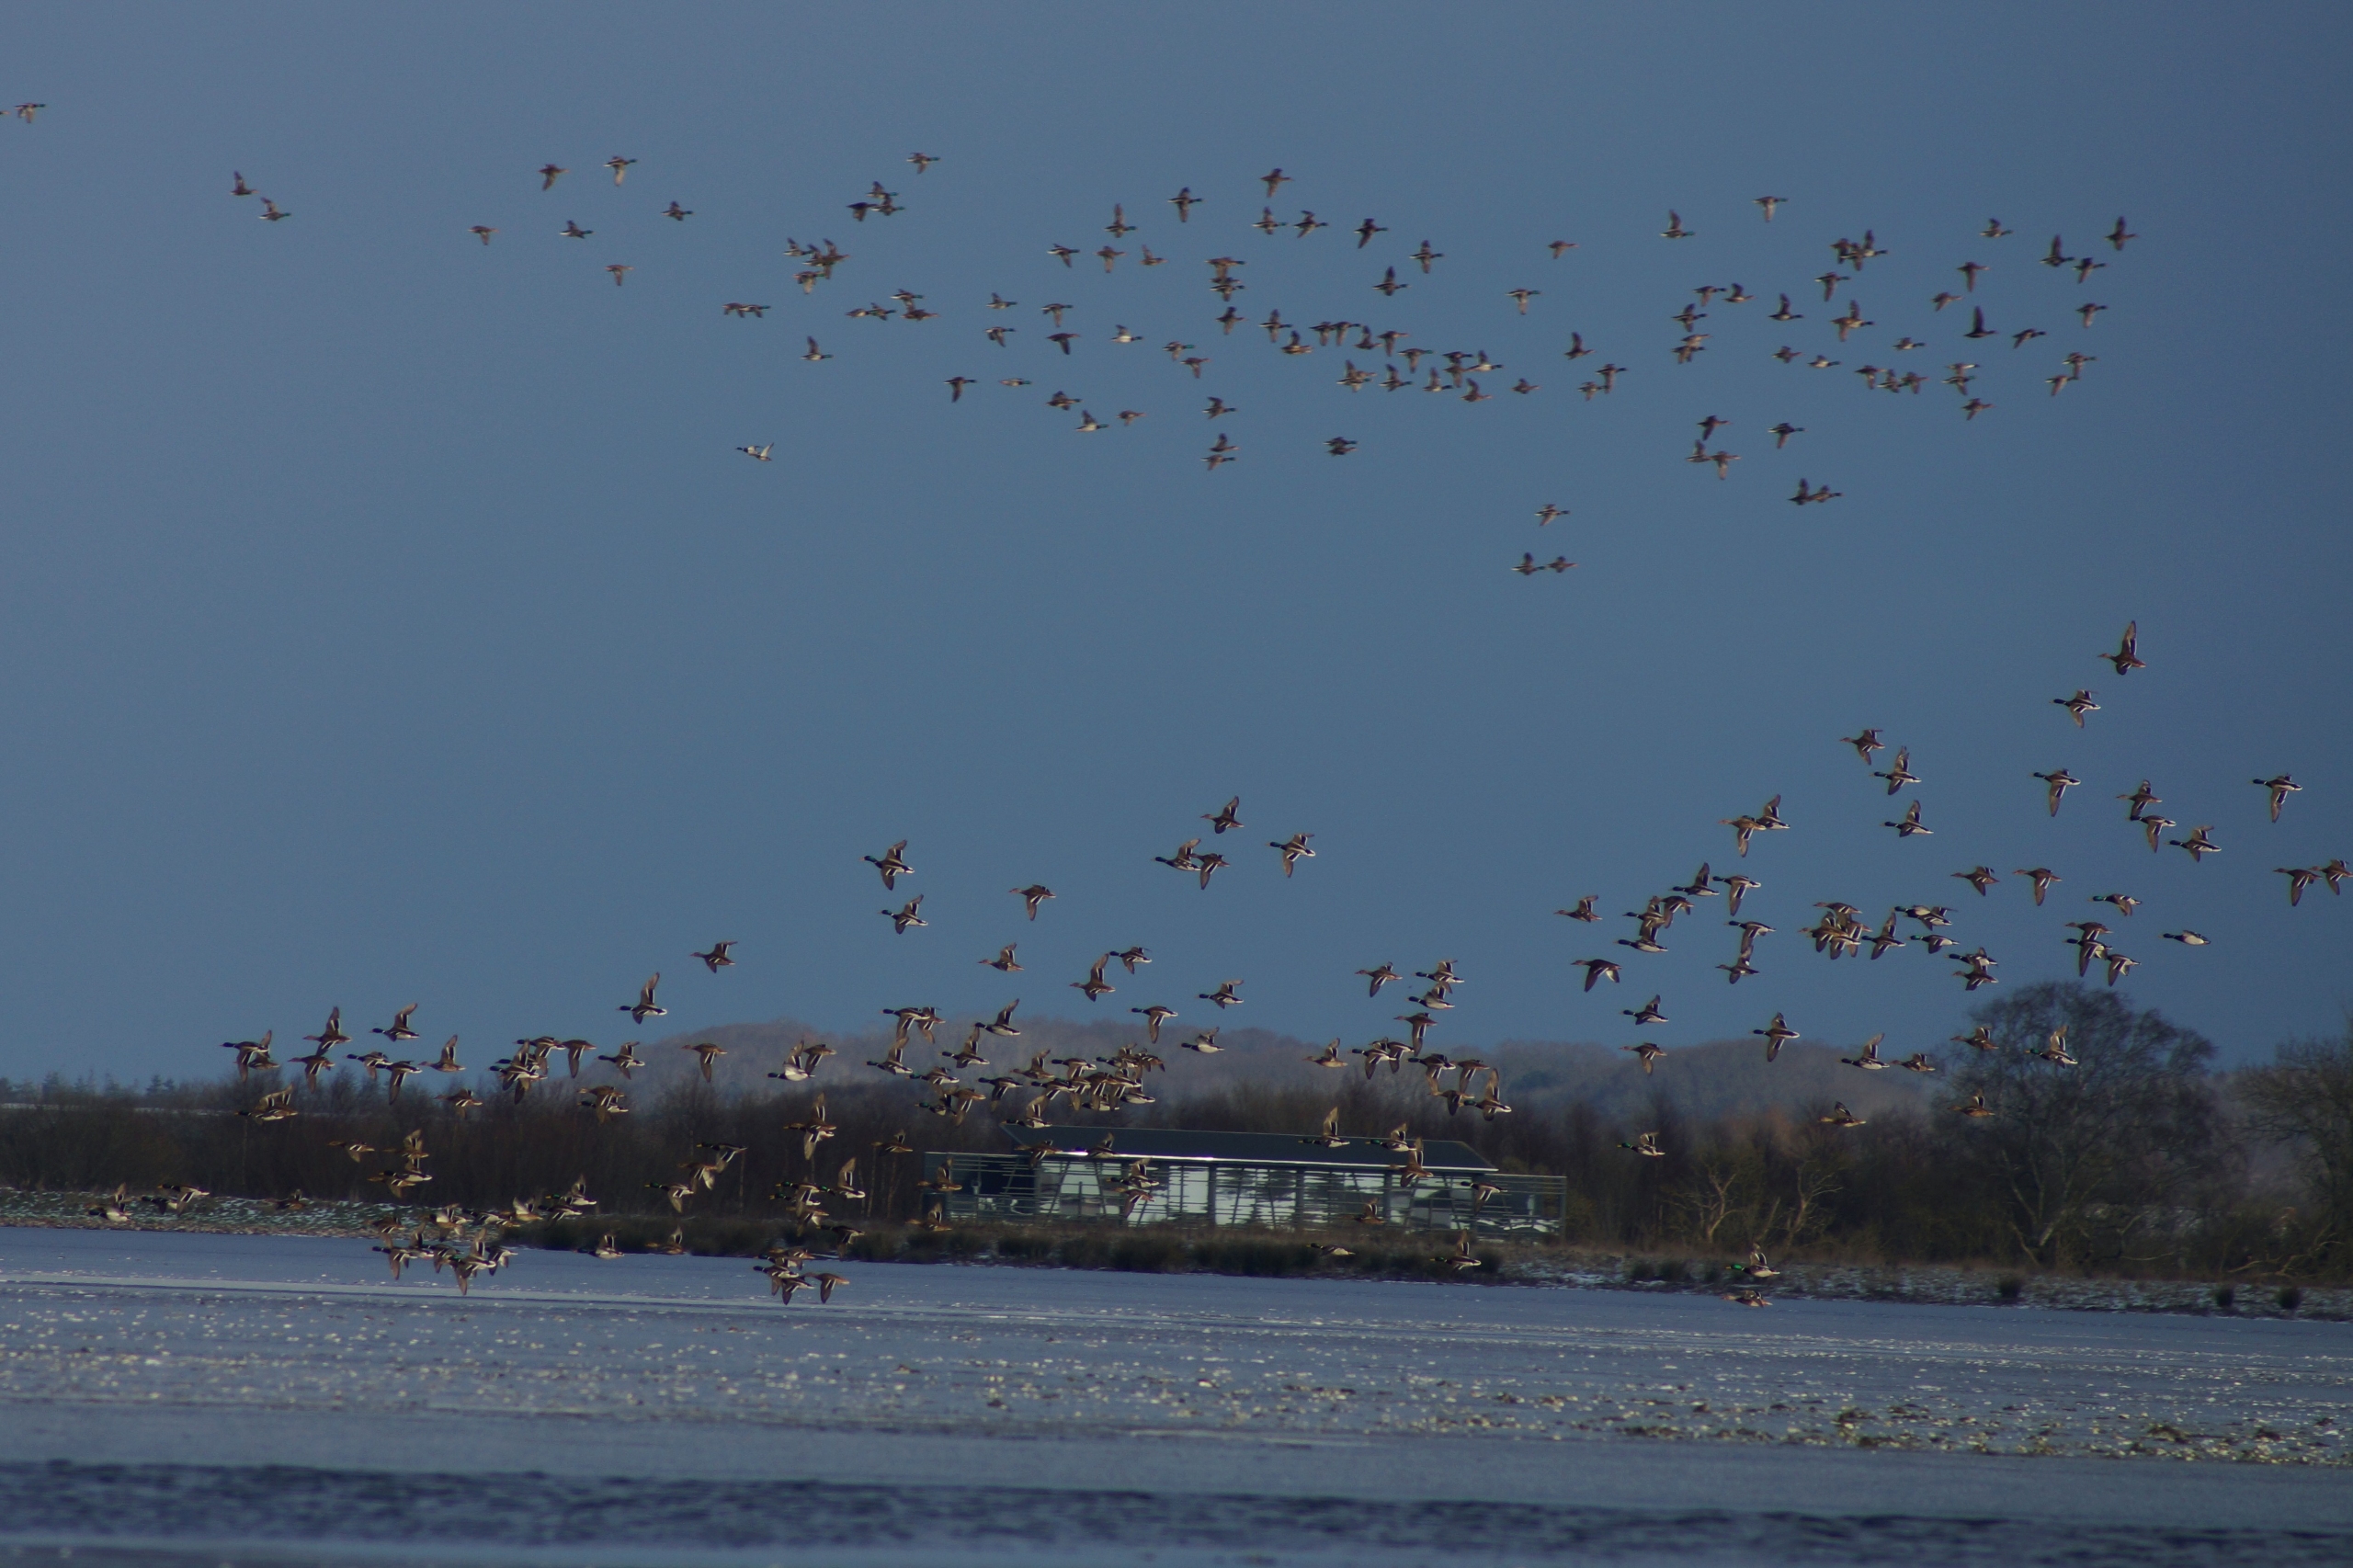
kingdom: Animalia
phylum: Chordata
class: Aves
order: Anseriformes
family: Anatidae
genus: Anas
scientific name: Anas platyrhynchos
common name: Gråand
